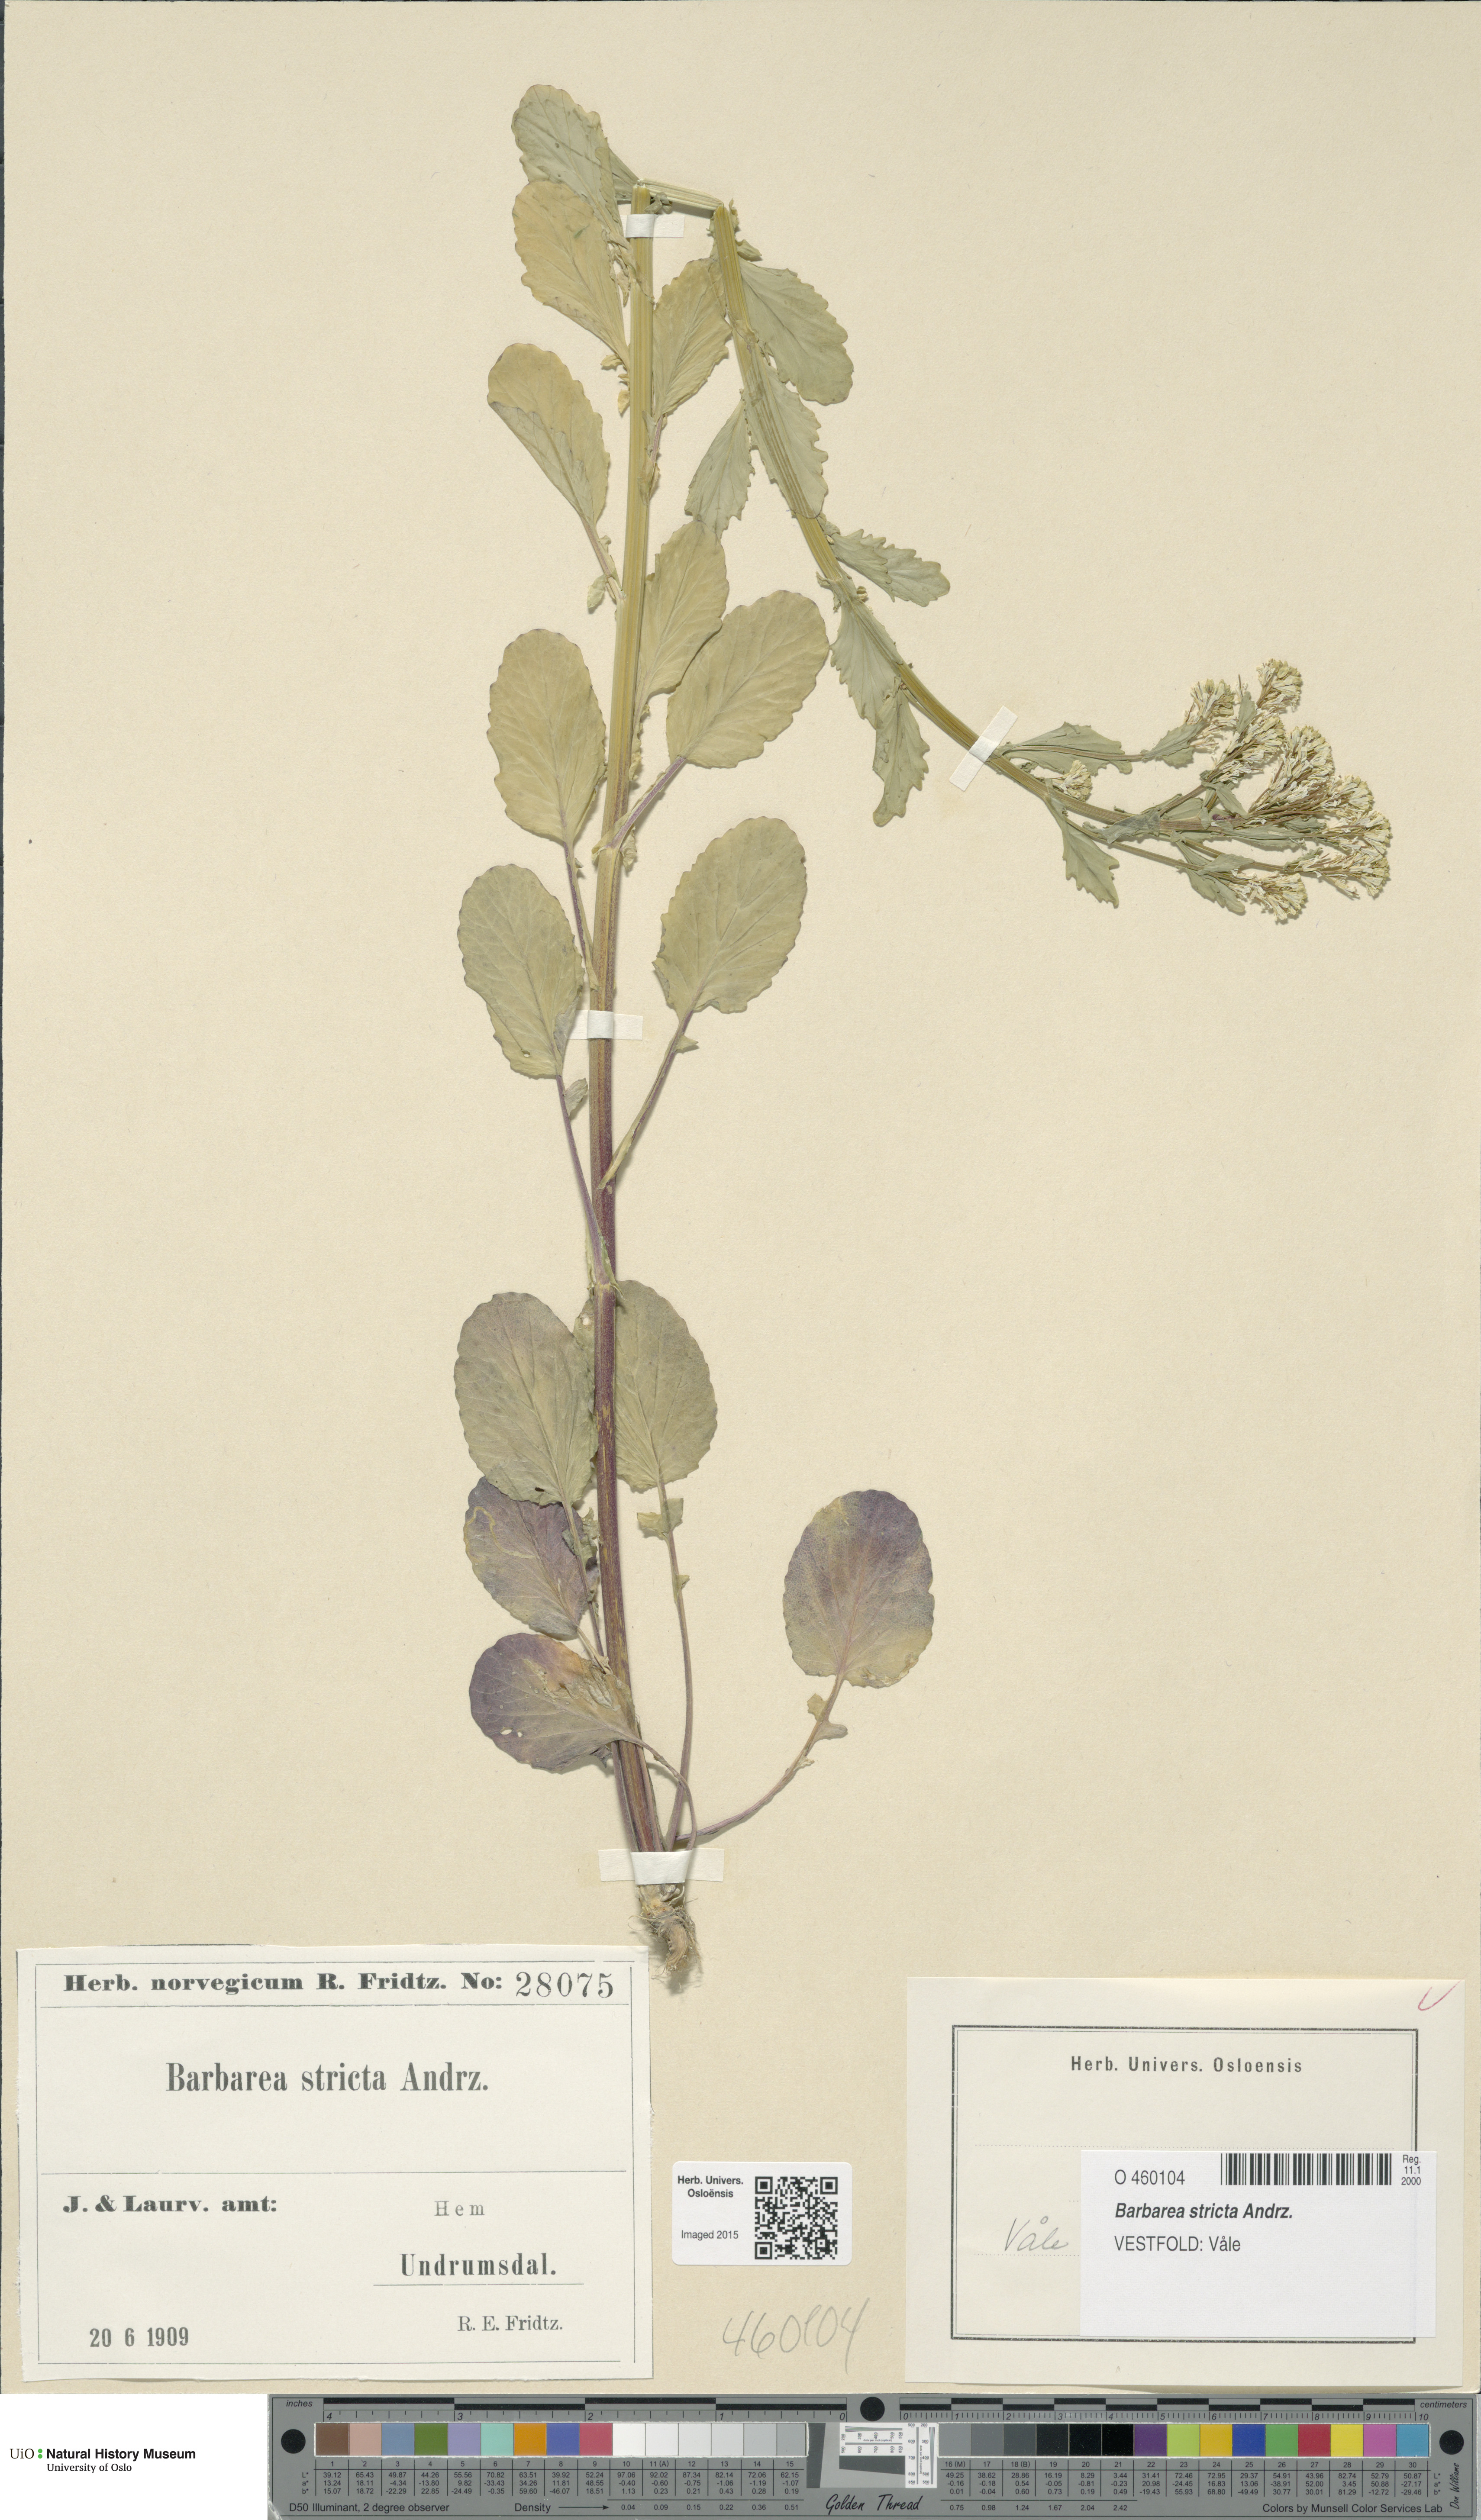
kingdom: Plantae
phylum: Tracheophyta
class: Magnoliopsida
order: Brassicales
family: Brassicaceae
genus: Barbarea
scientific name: Barbarea stricta
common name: Small-flowered winter-cress
